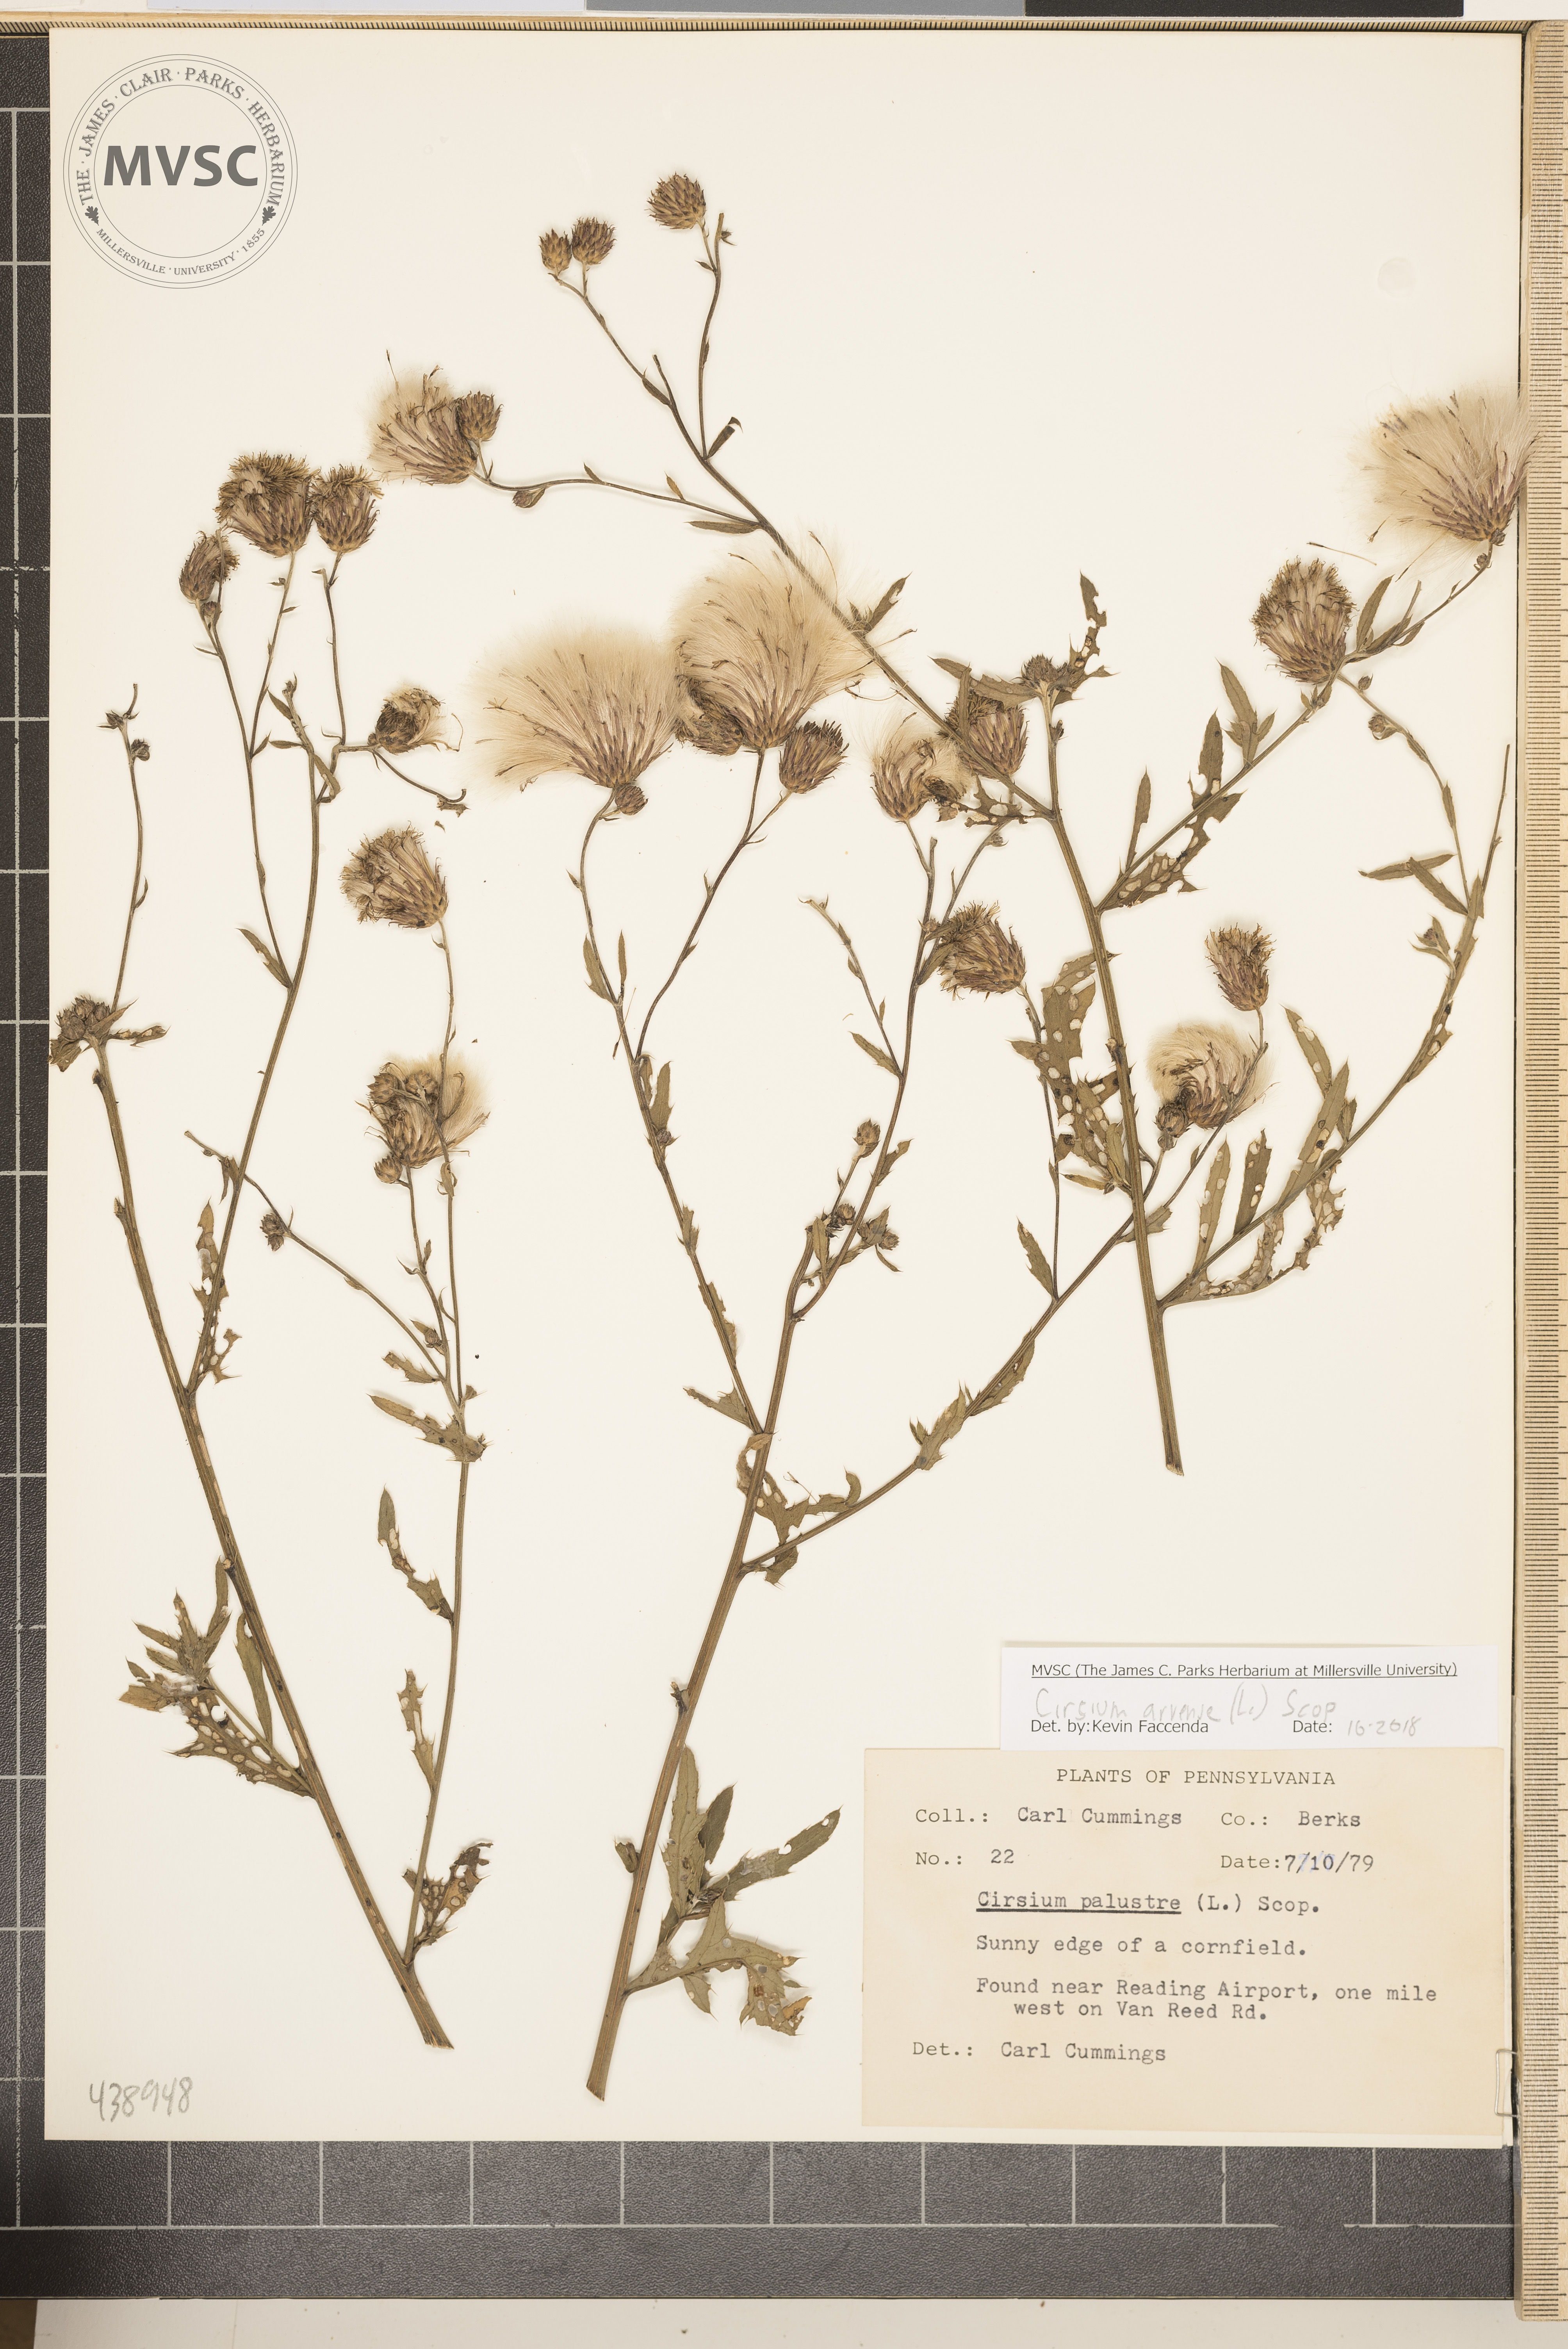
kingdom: Plantae
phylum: Tracheophyta
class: Magnoliopsida
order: Asterales
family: Asteraceae
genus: Cirsium
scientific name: Cirsium arvense
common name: Creeping thistle
